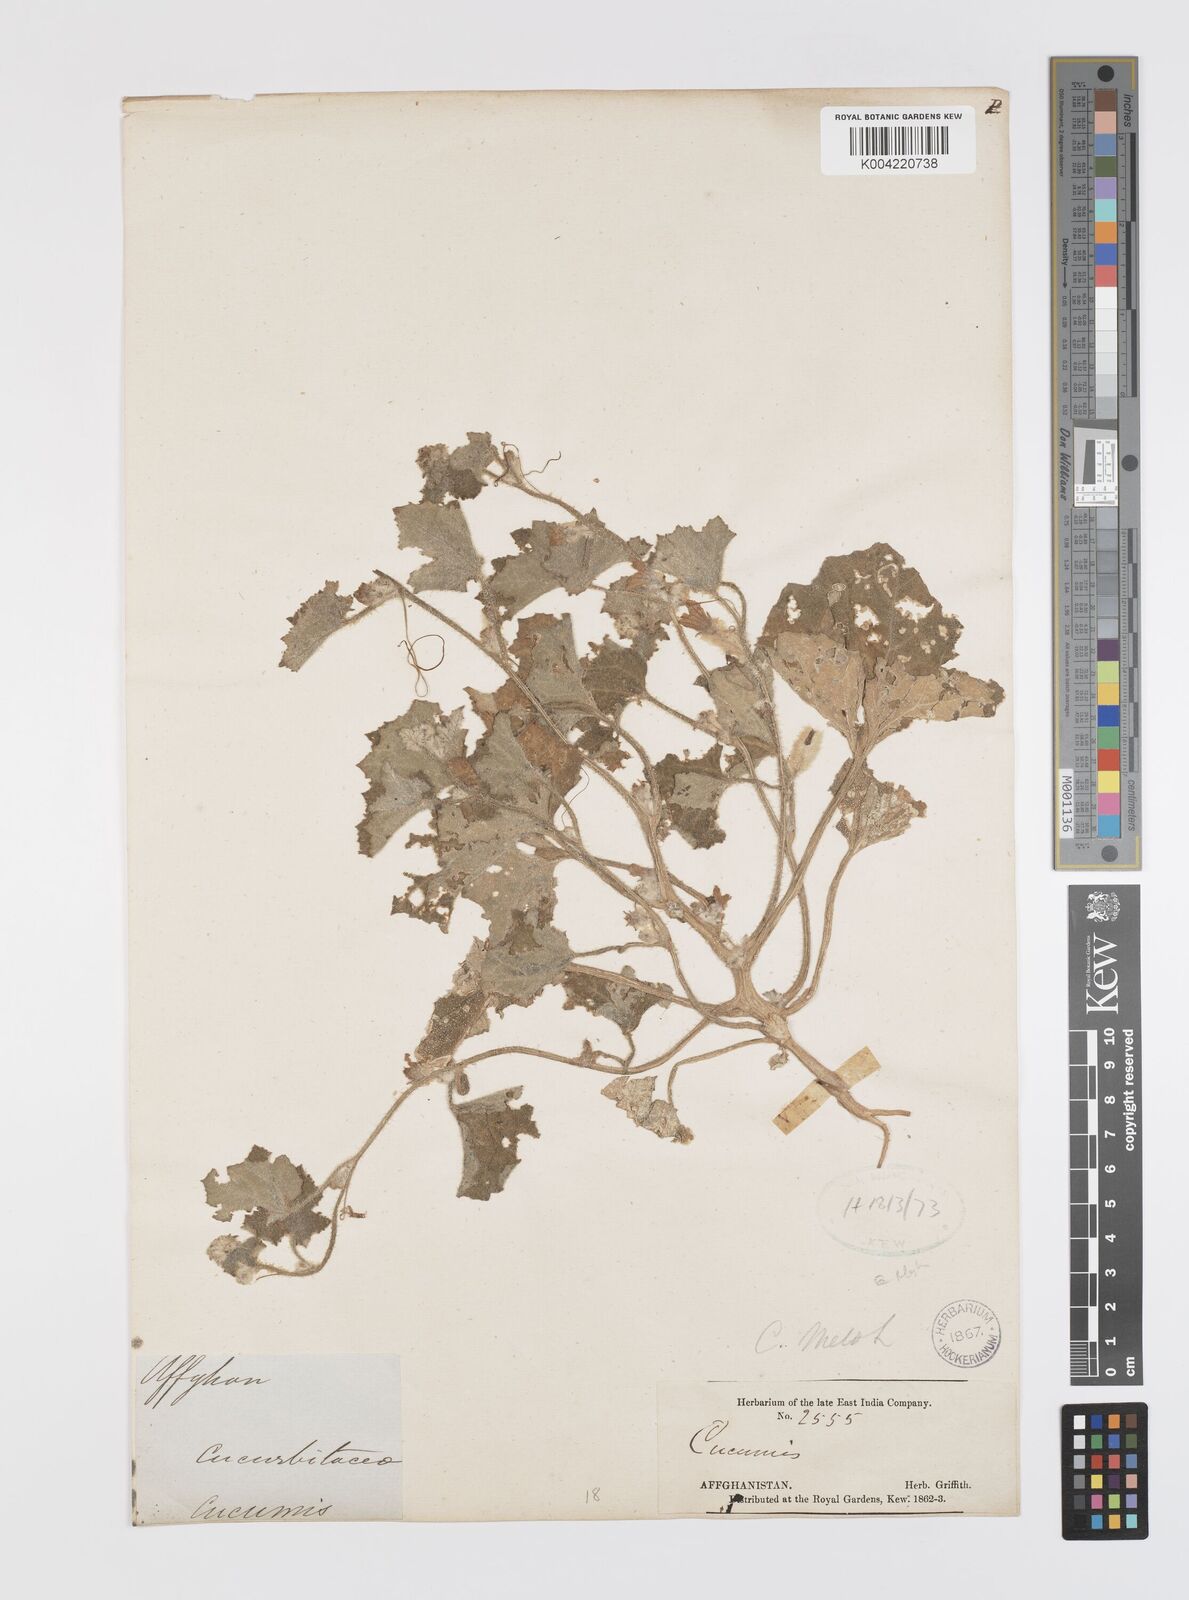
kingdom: Plantae
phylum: Tracheophyta
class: Magnoliopsida
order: Cucurbitales
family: Cucurbitaceae
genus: Cucumis
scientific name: Cucumis melo
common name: Melon
